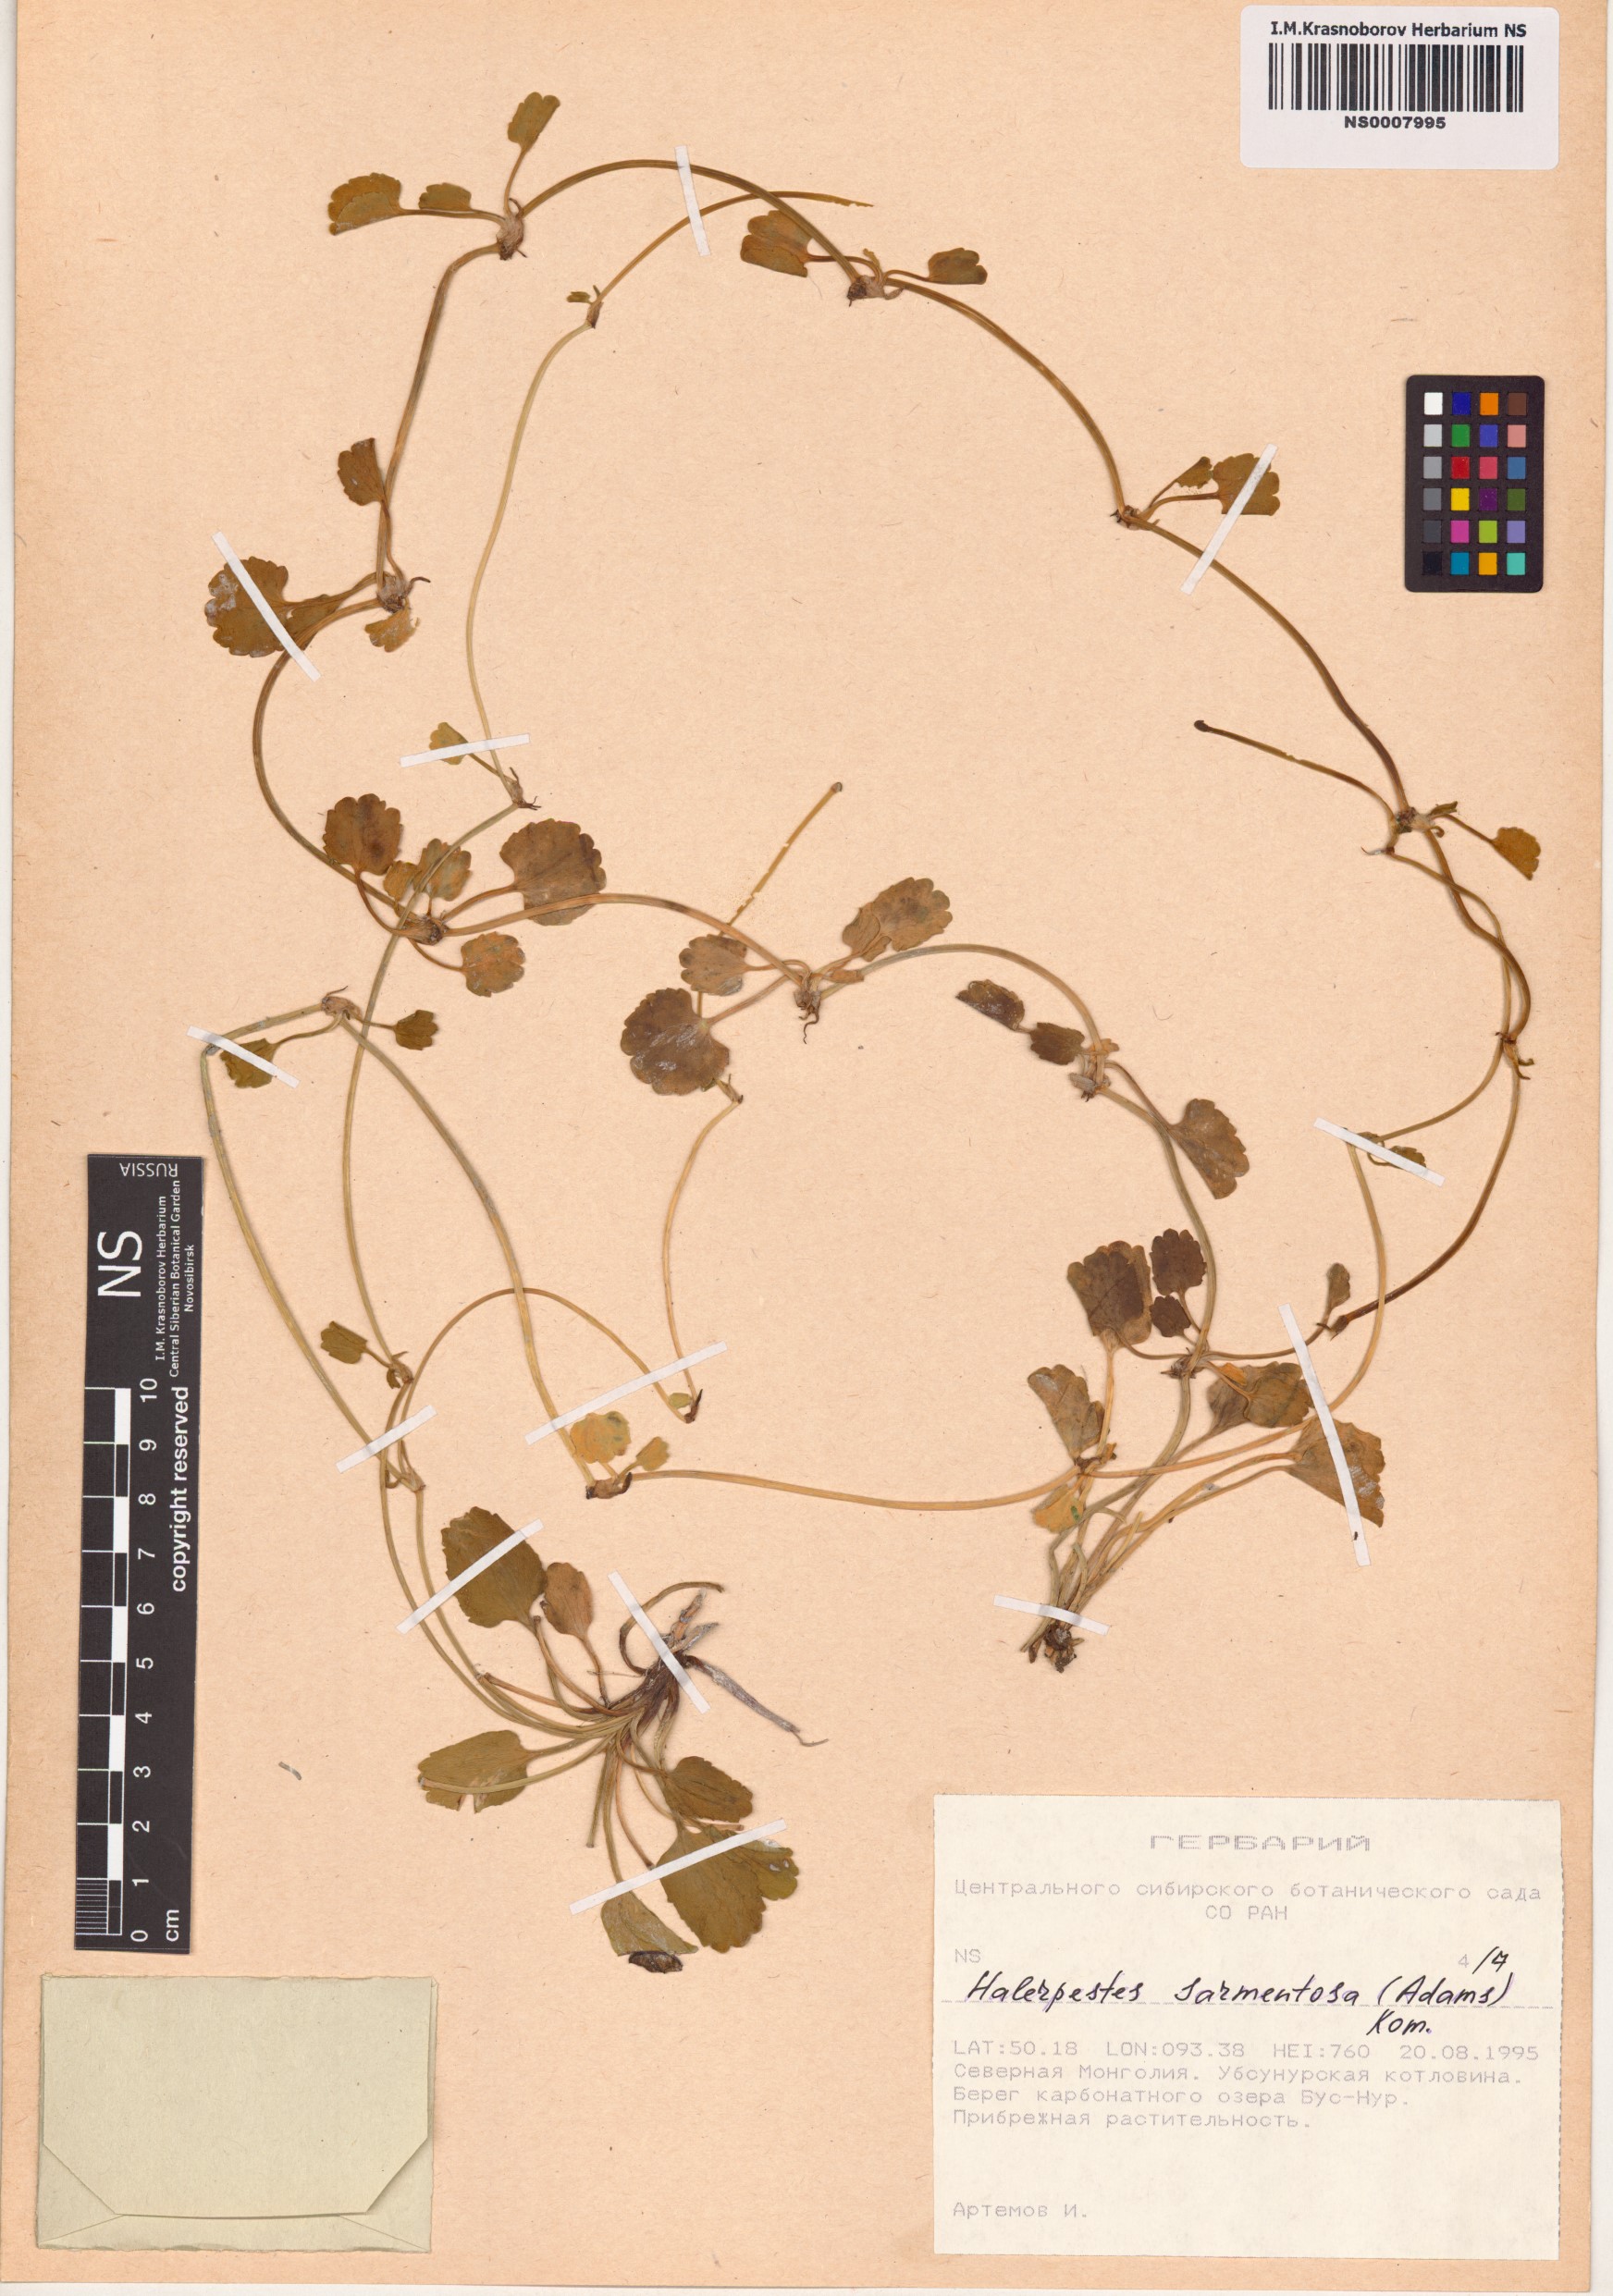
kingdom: Plantae
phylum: Tracheophyta
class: Magnoliopsida
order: Ranunculales
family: Ranunculaceae
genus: Halerpestes
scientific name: Halerpestes sarmentosus
